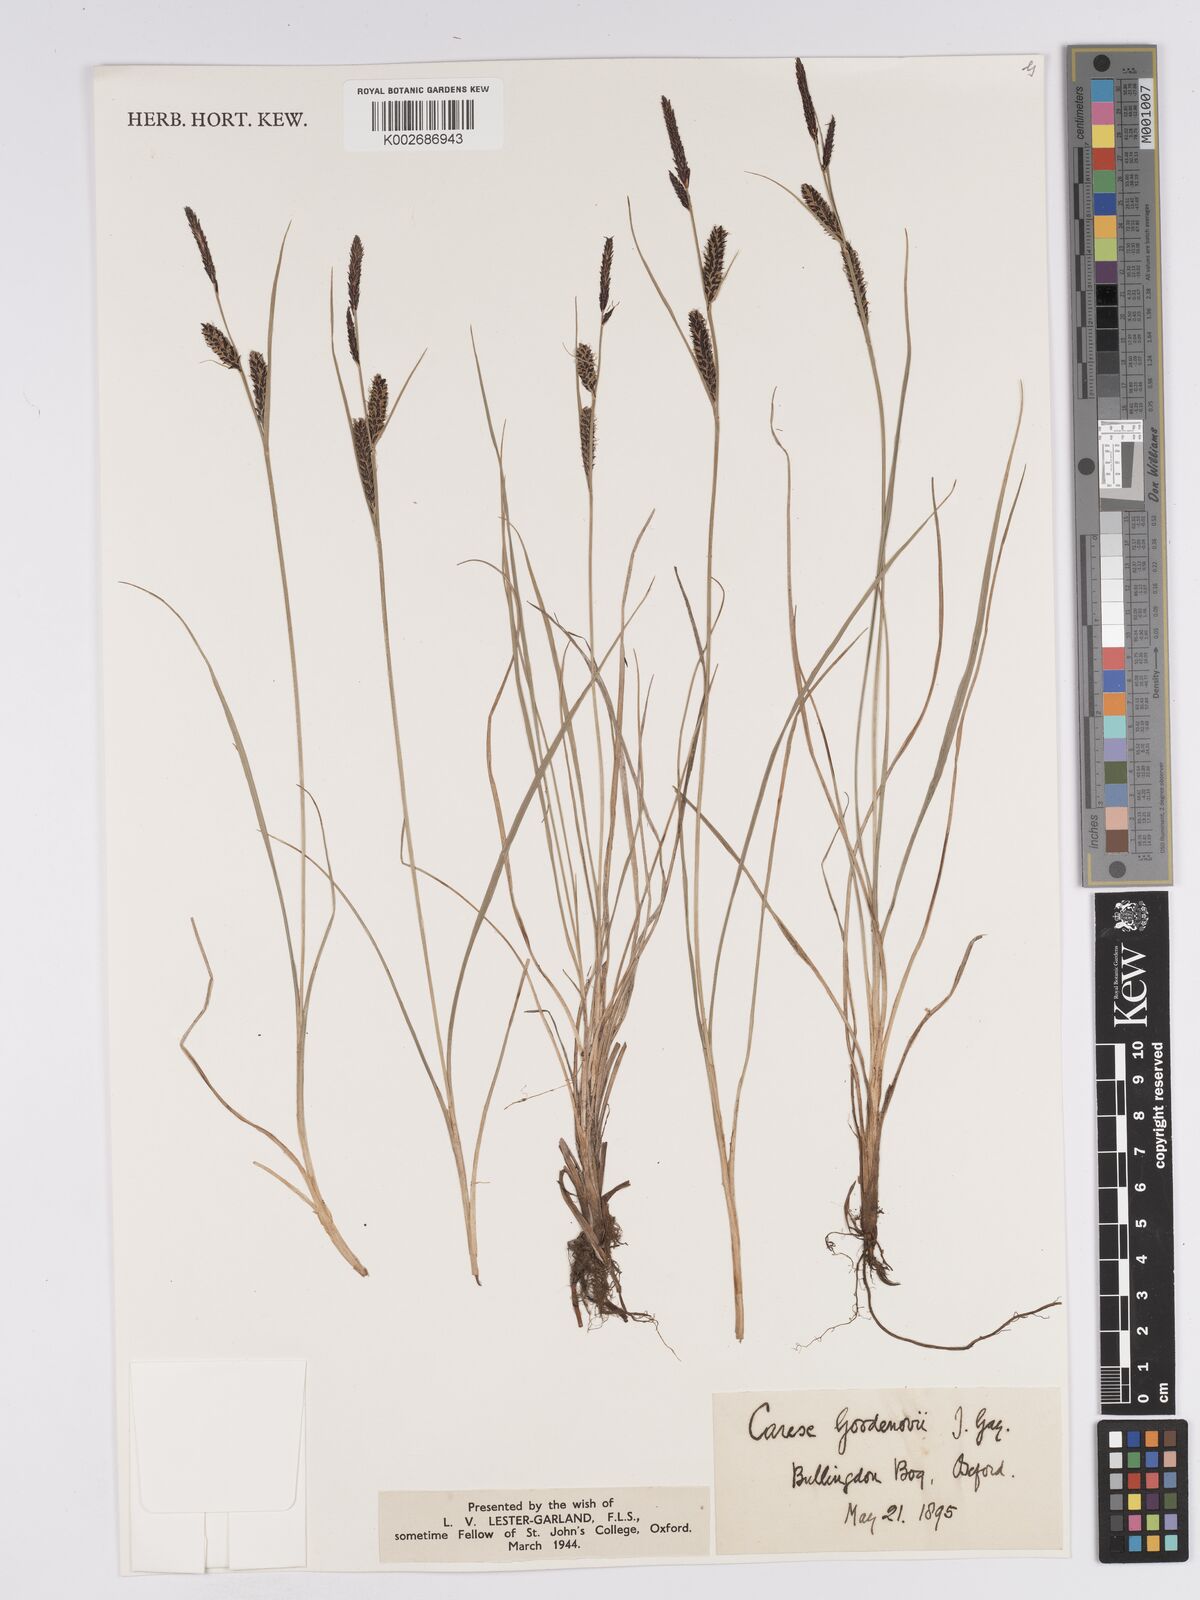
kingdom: Plantae
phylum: Tracheophyta
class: Liliopsida
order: Poales
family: Cyperaceae
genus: Carex
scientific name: Carex nigra
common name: Common sedge
